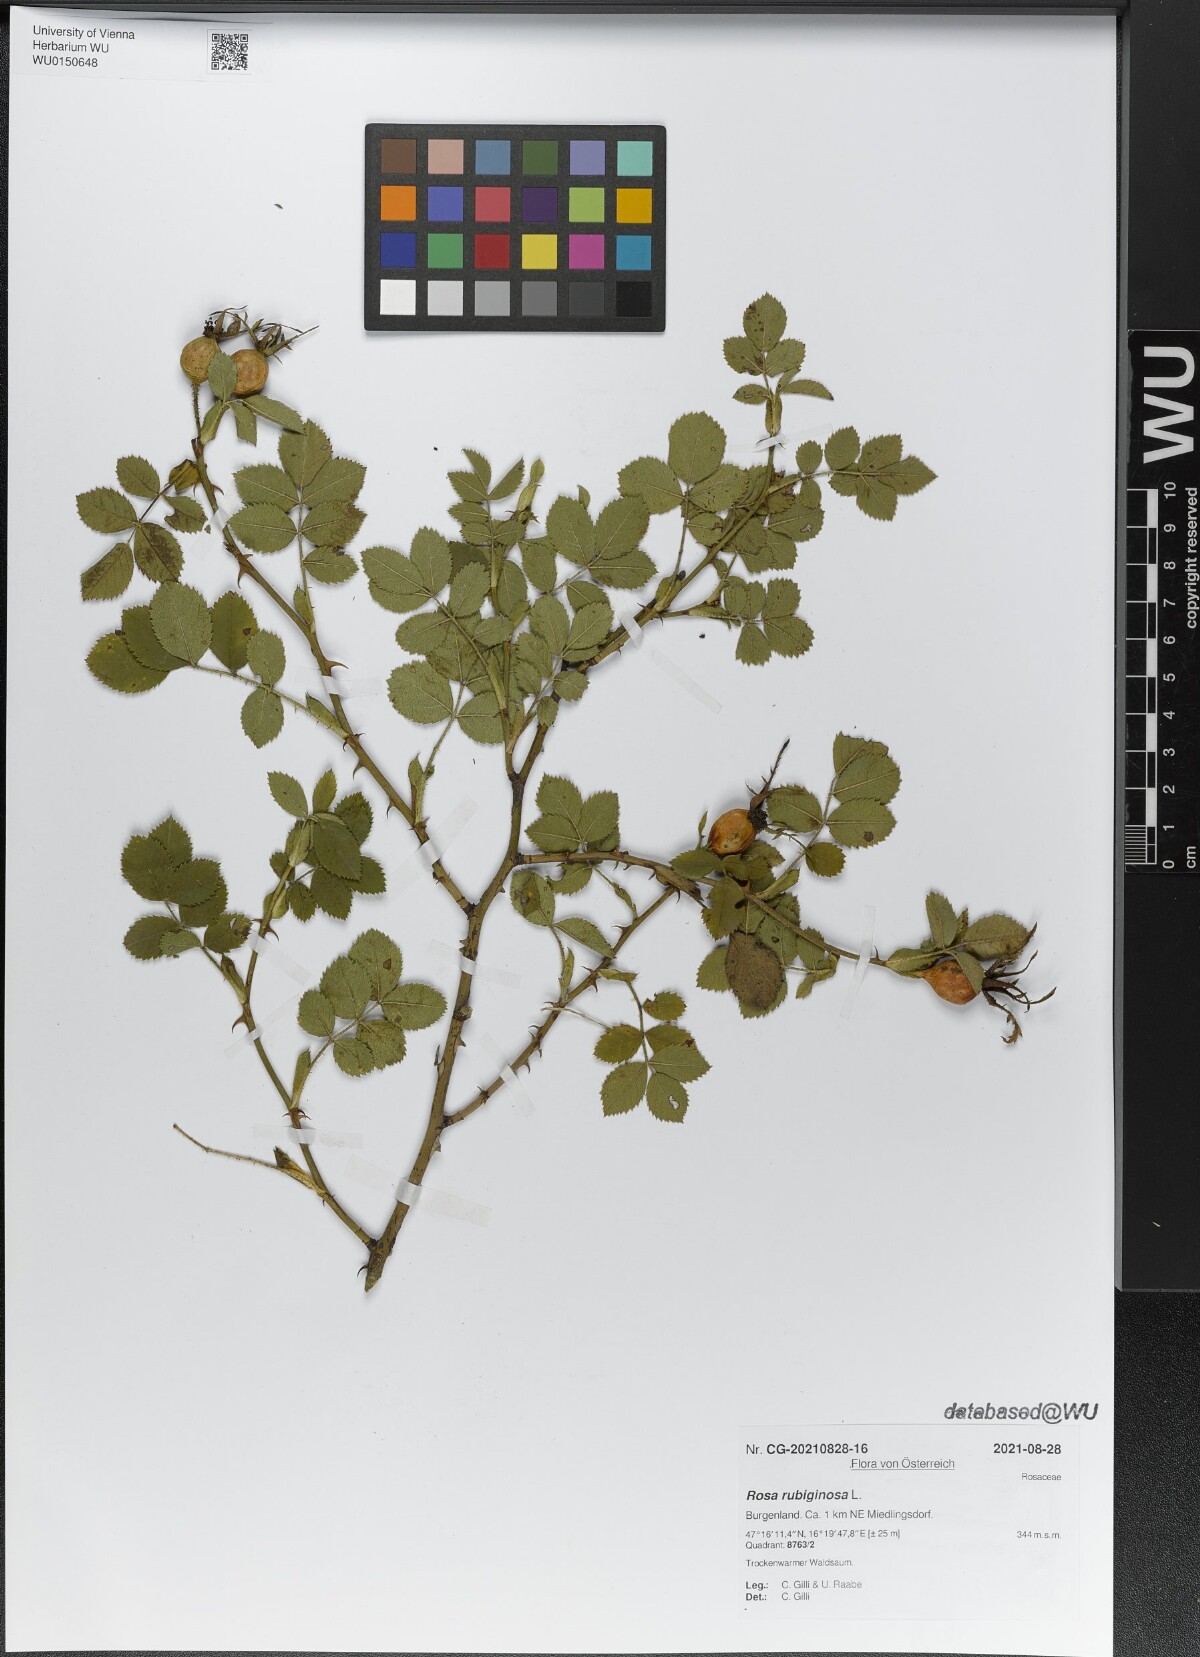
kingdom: Plantae
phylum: Tracheophyta
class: Magnoliopsida
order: Rosales
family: Rosaceae
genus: Rosa
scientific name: Rosa rubiginosa
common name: Sweet-briar
